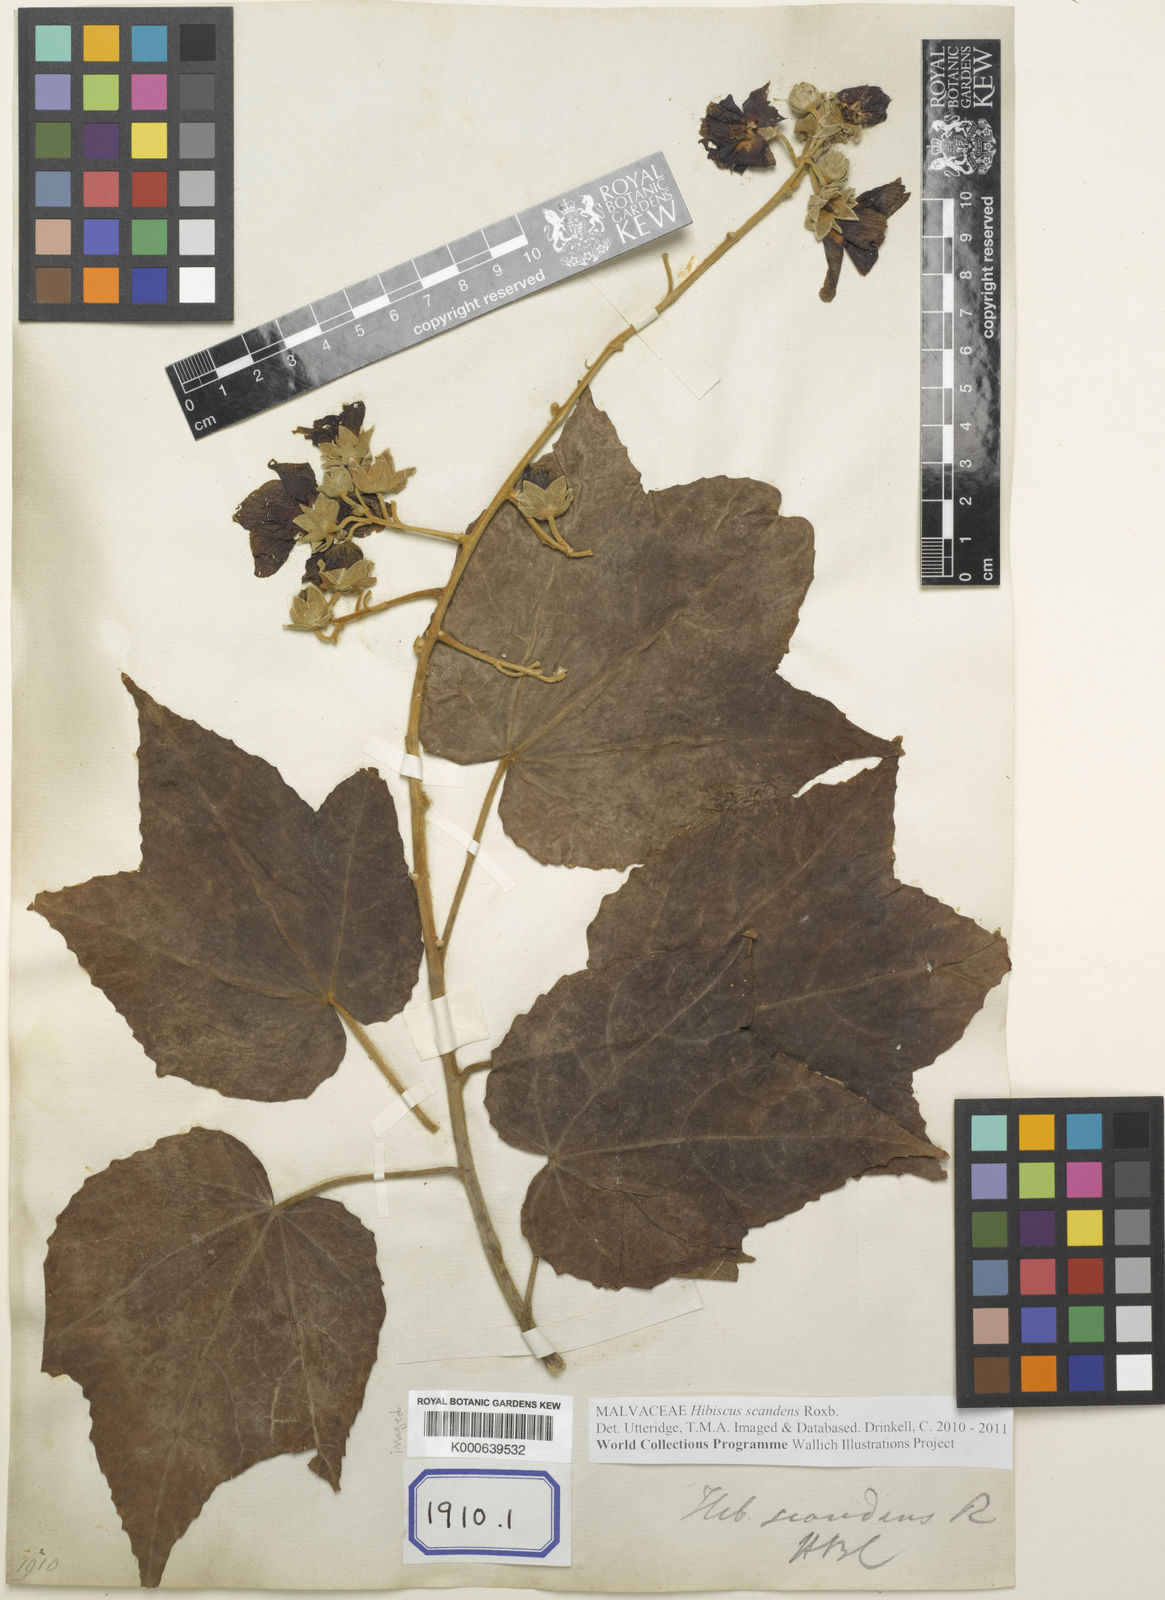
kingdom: Plantae
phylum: Tracheophyta
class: Magnoliopsida
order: Malvales
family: Malvaceae
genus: Hibiscus
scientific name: Hibiscus
